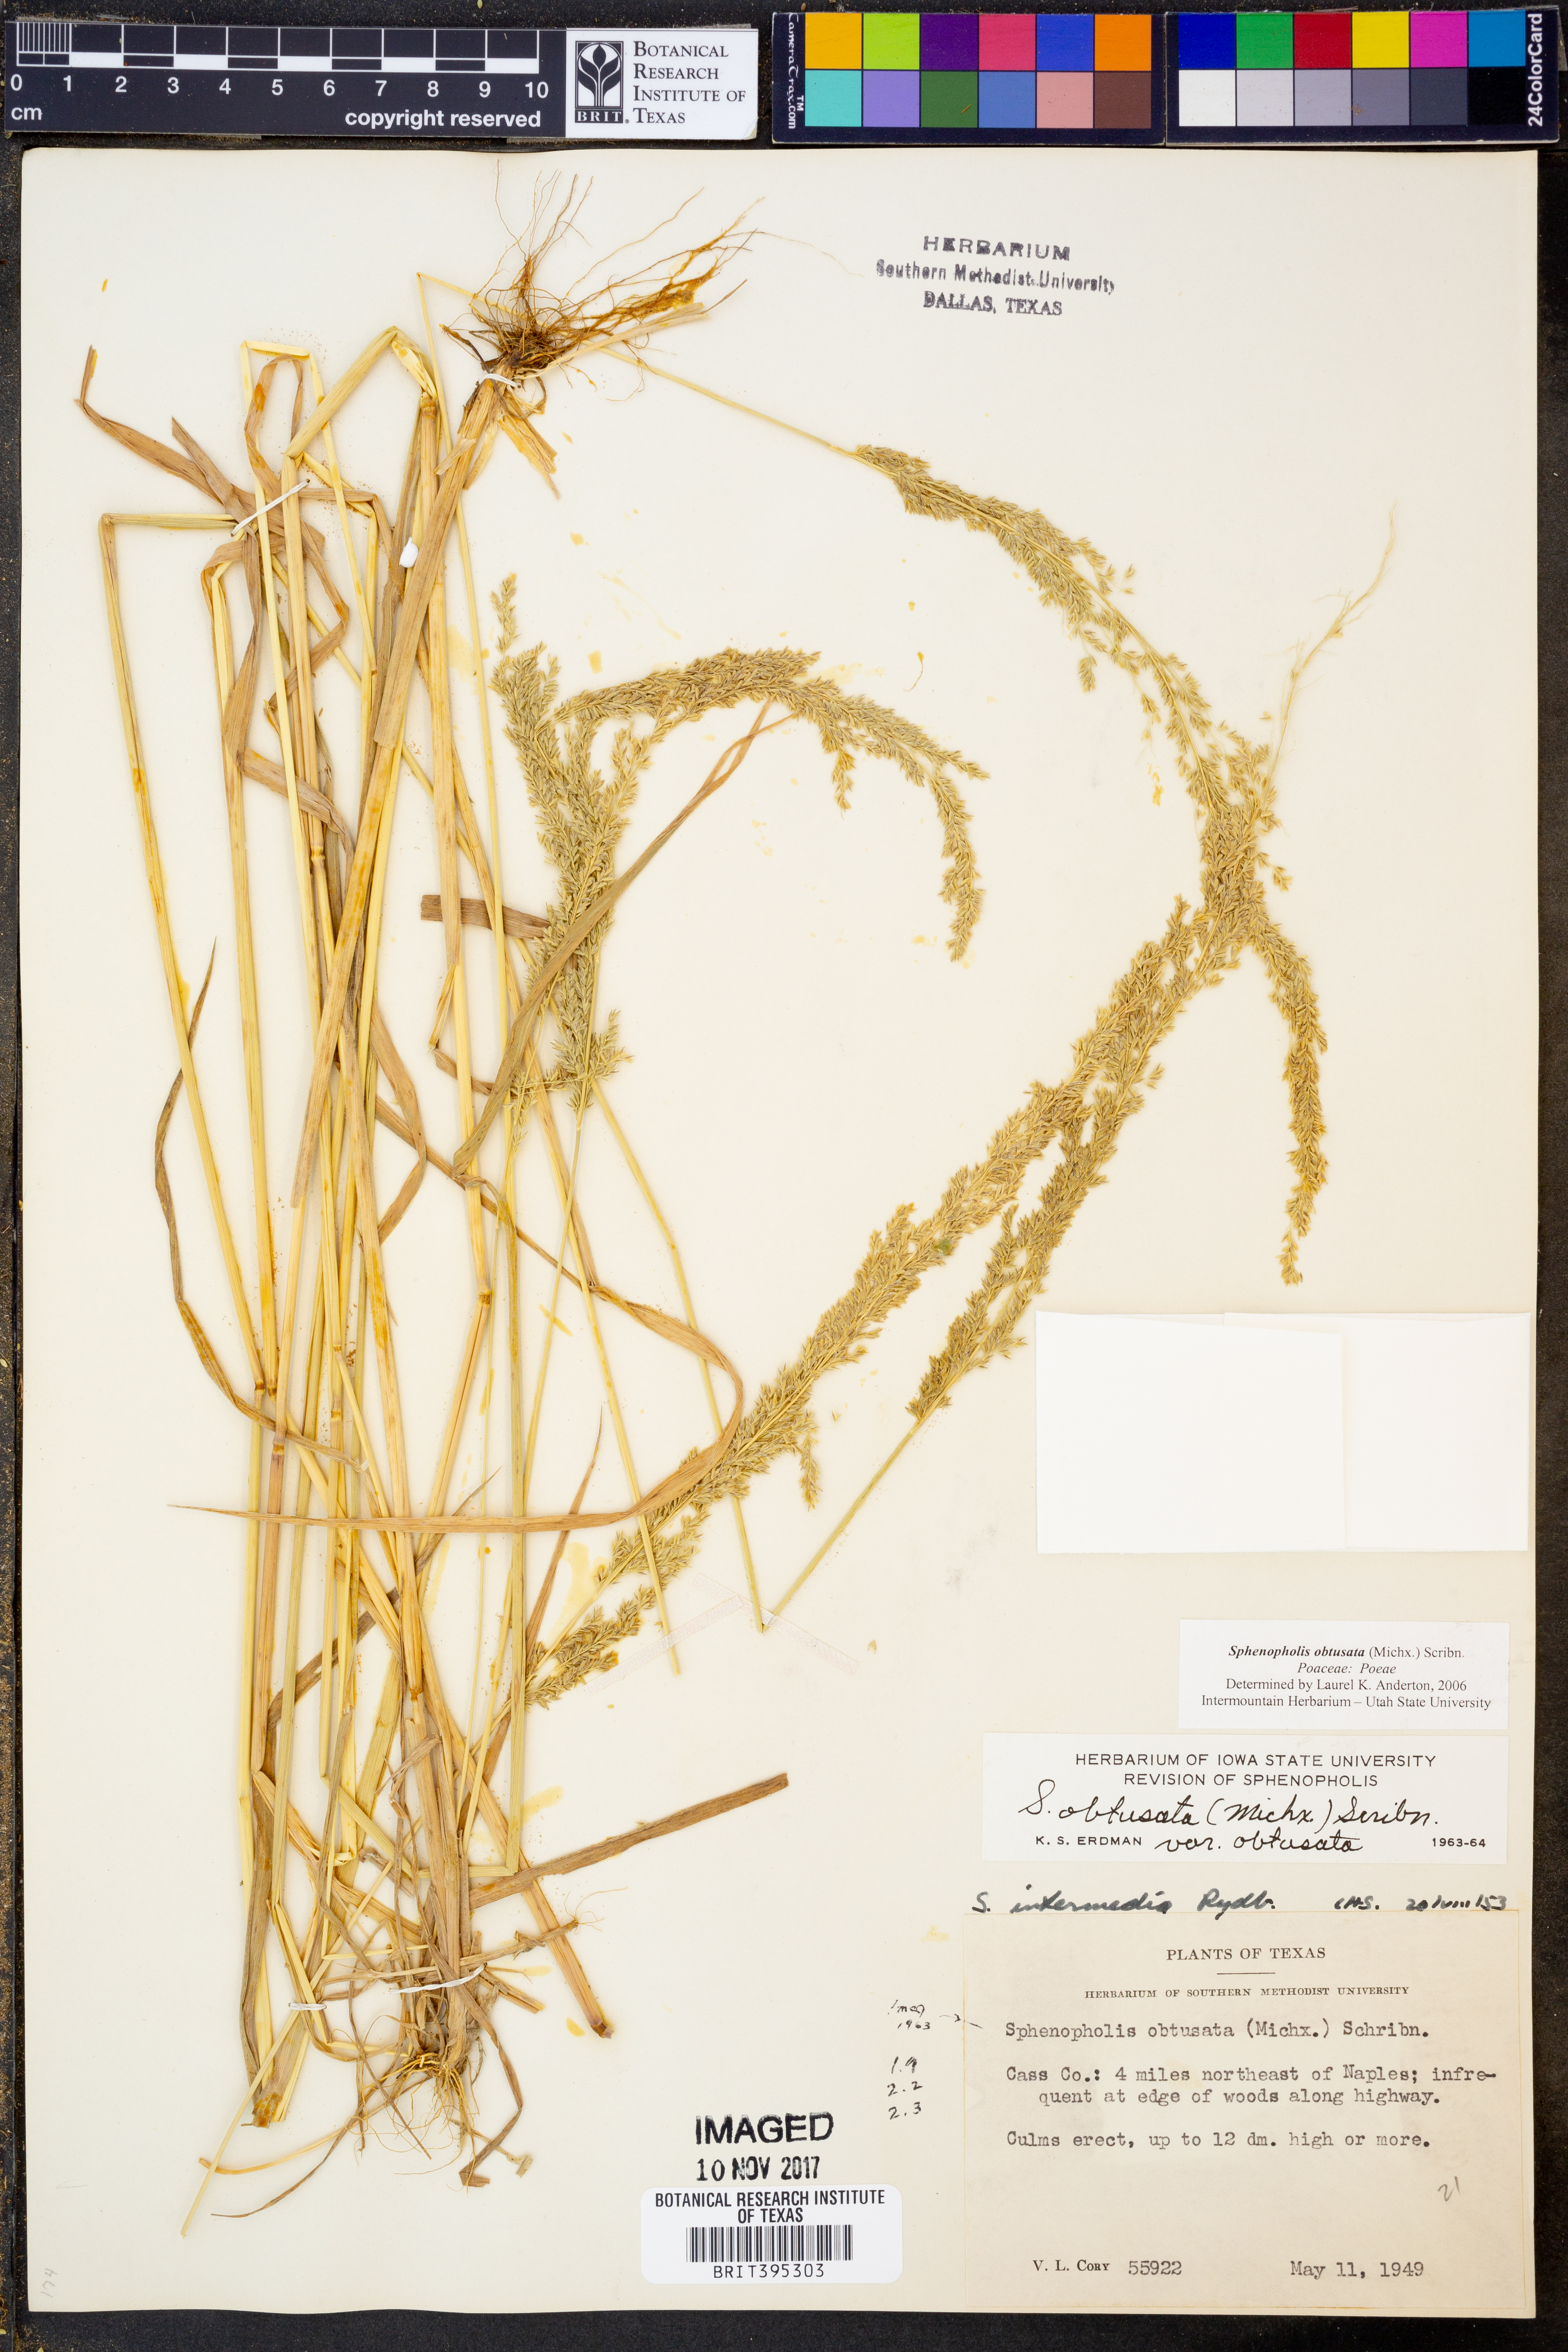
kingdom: Plantae
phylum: Tracheophyta
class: Liliopsida
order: Poales
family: Poaceae
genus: Sphenopholis
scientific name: Sphenopholis obtusata
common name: Prairie grass
